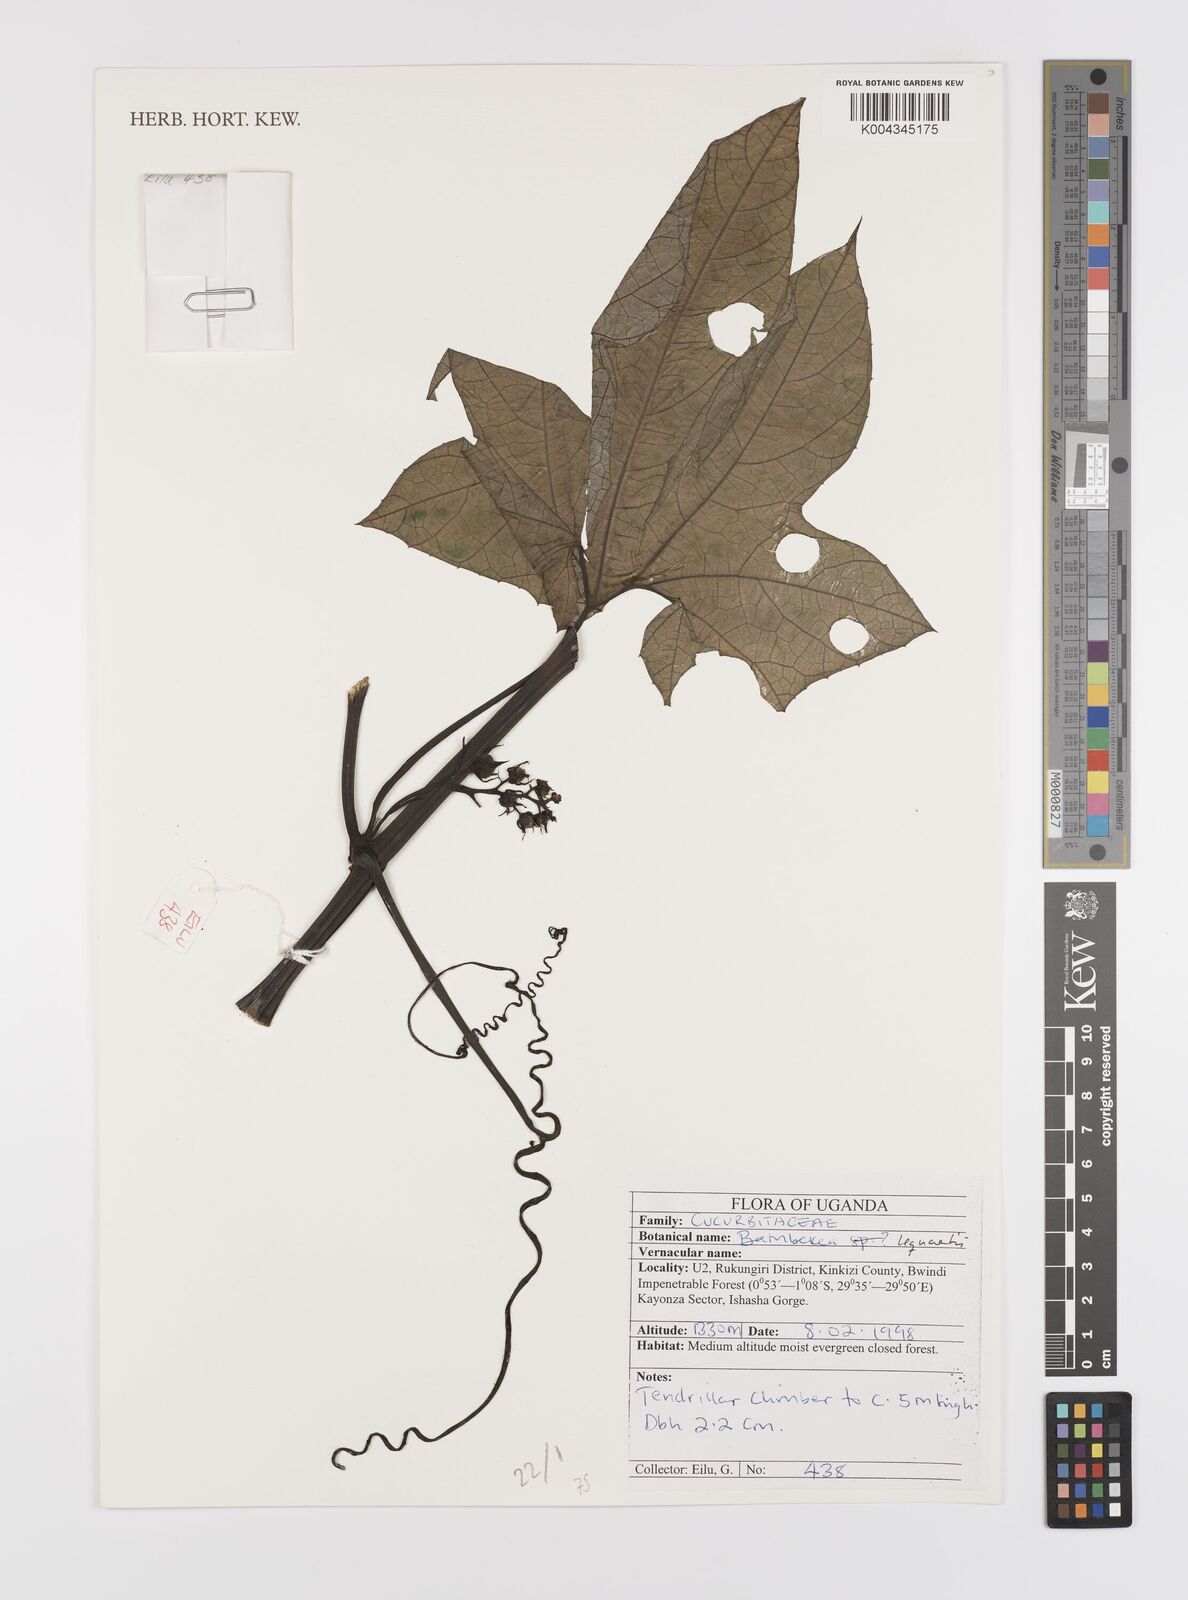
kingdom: Plantae
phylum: Tracheophyta
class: Magnoliopsida
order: Cucurbitales
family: Cucurbitaceae
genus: Bambekea
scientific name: Bambekea racemosa
